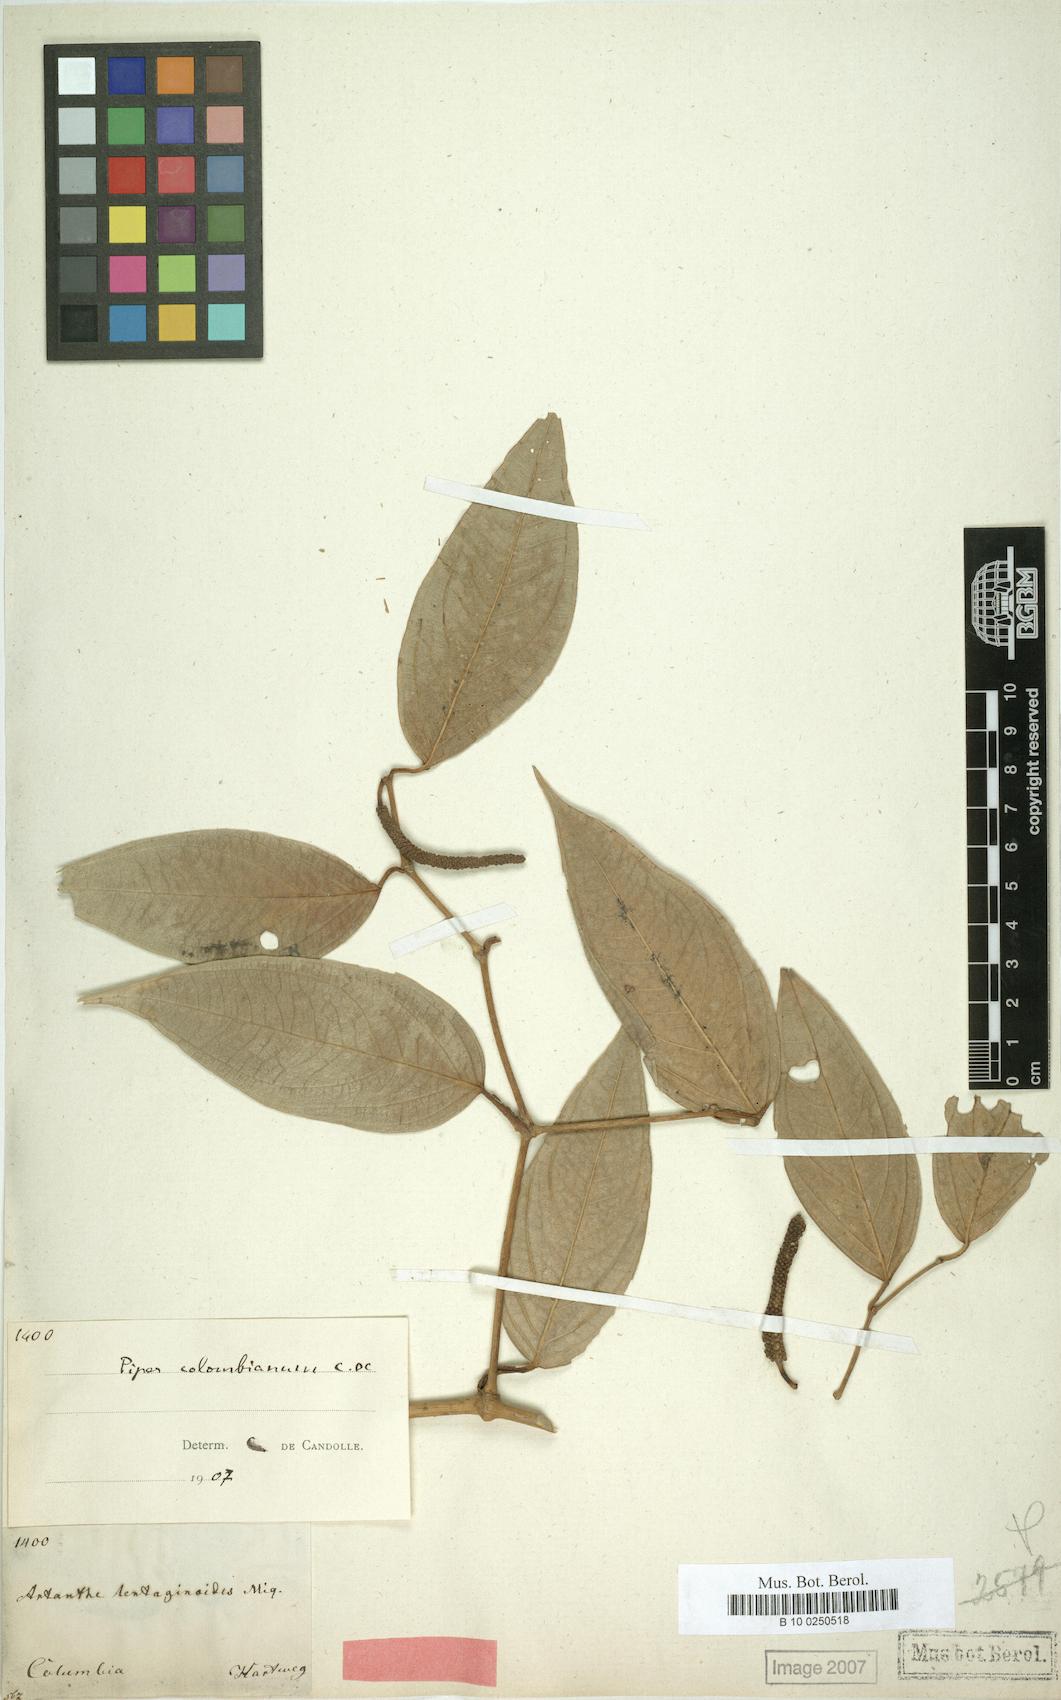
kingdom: Plantae
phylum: Tracheophyta
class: Magnoliopsida
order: Piperales
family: Piperaceae
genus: Piper
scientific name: Piper lenticellosum
